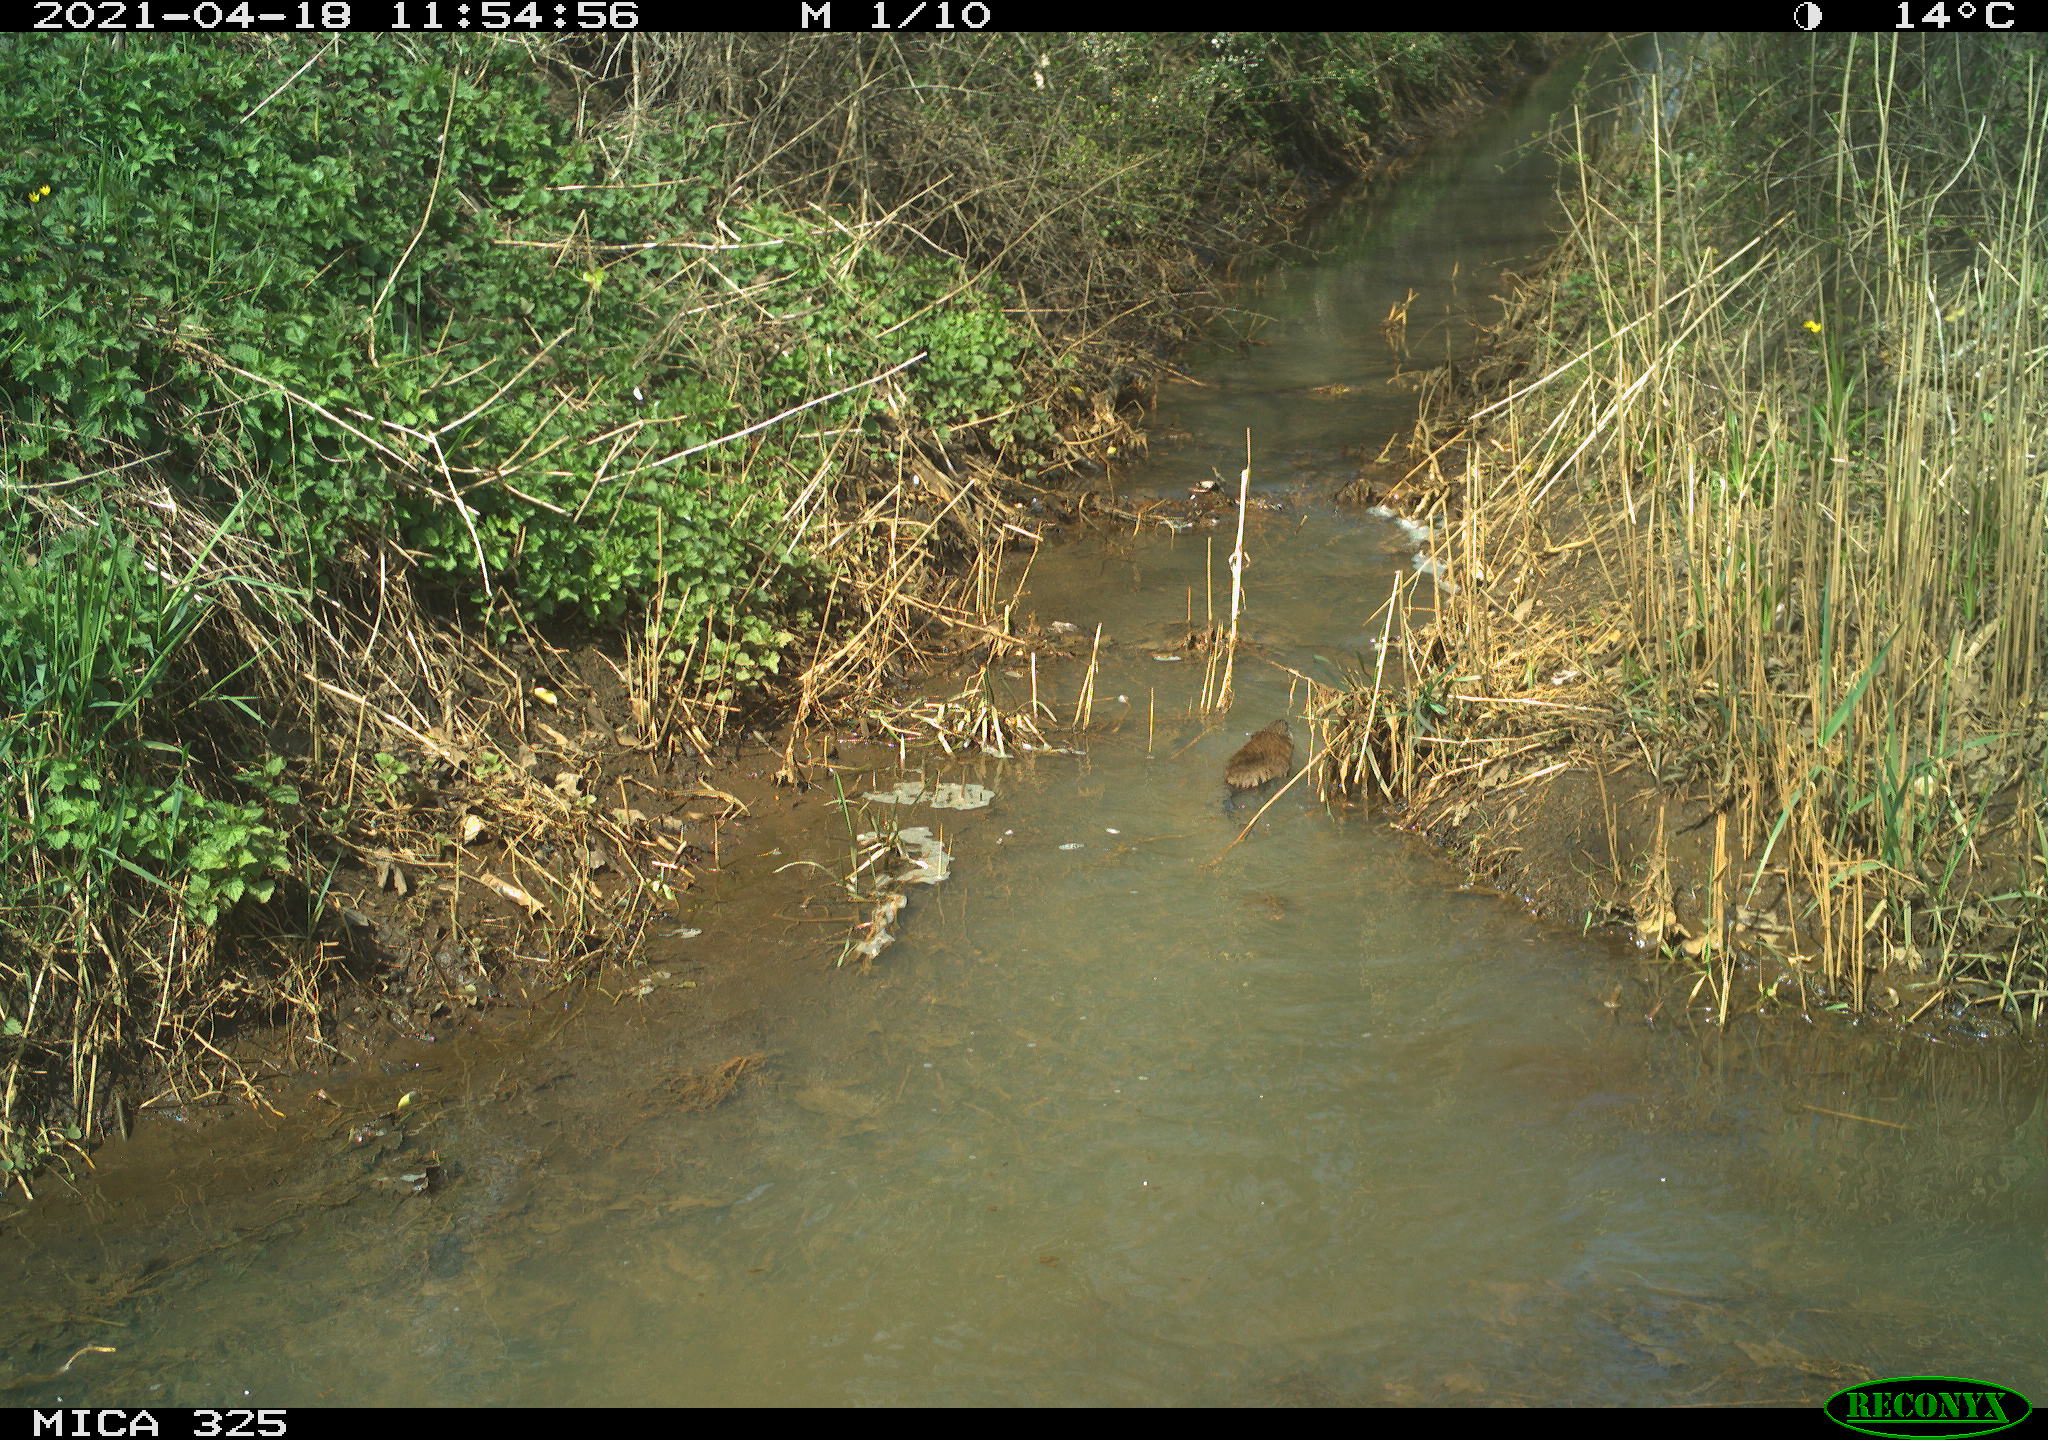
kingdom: Animalia
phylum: Chordata
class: Mammalia
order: Rodentia
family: Cricetidae
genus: Ondatra
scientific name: Ondatra zibethicus
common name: Muskrat
